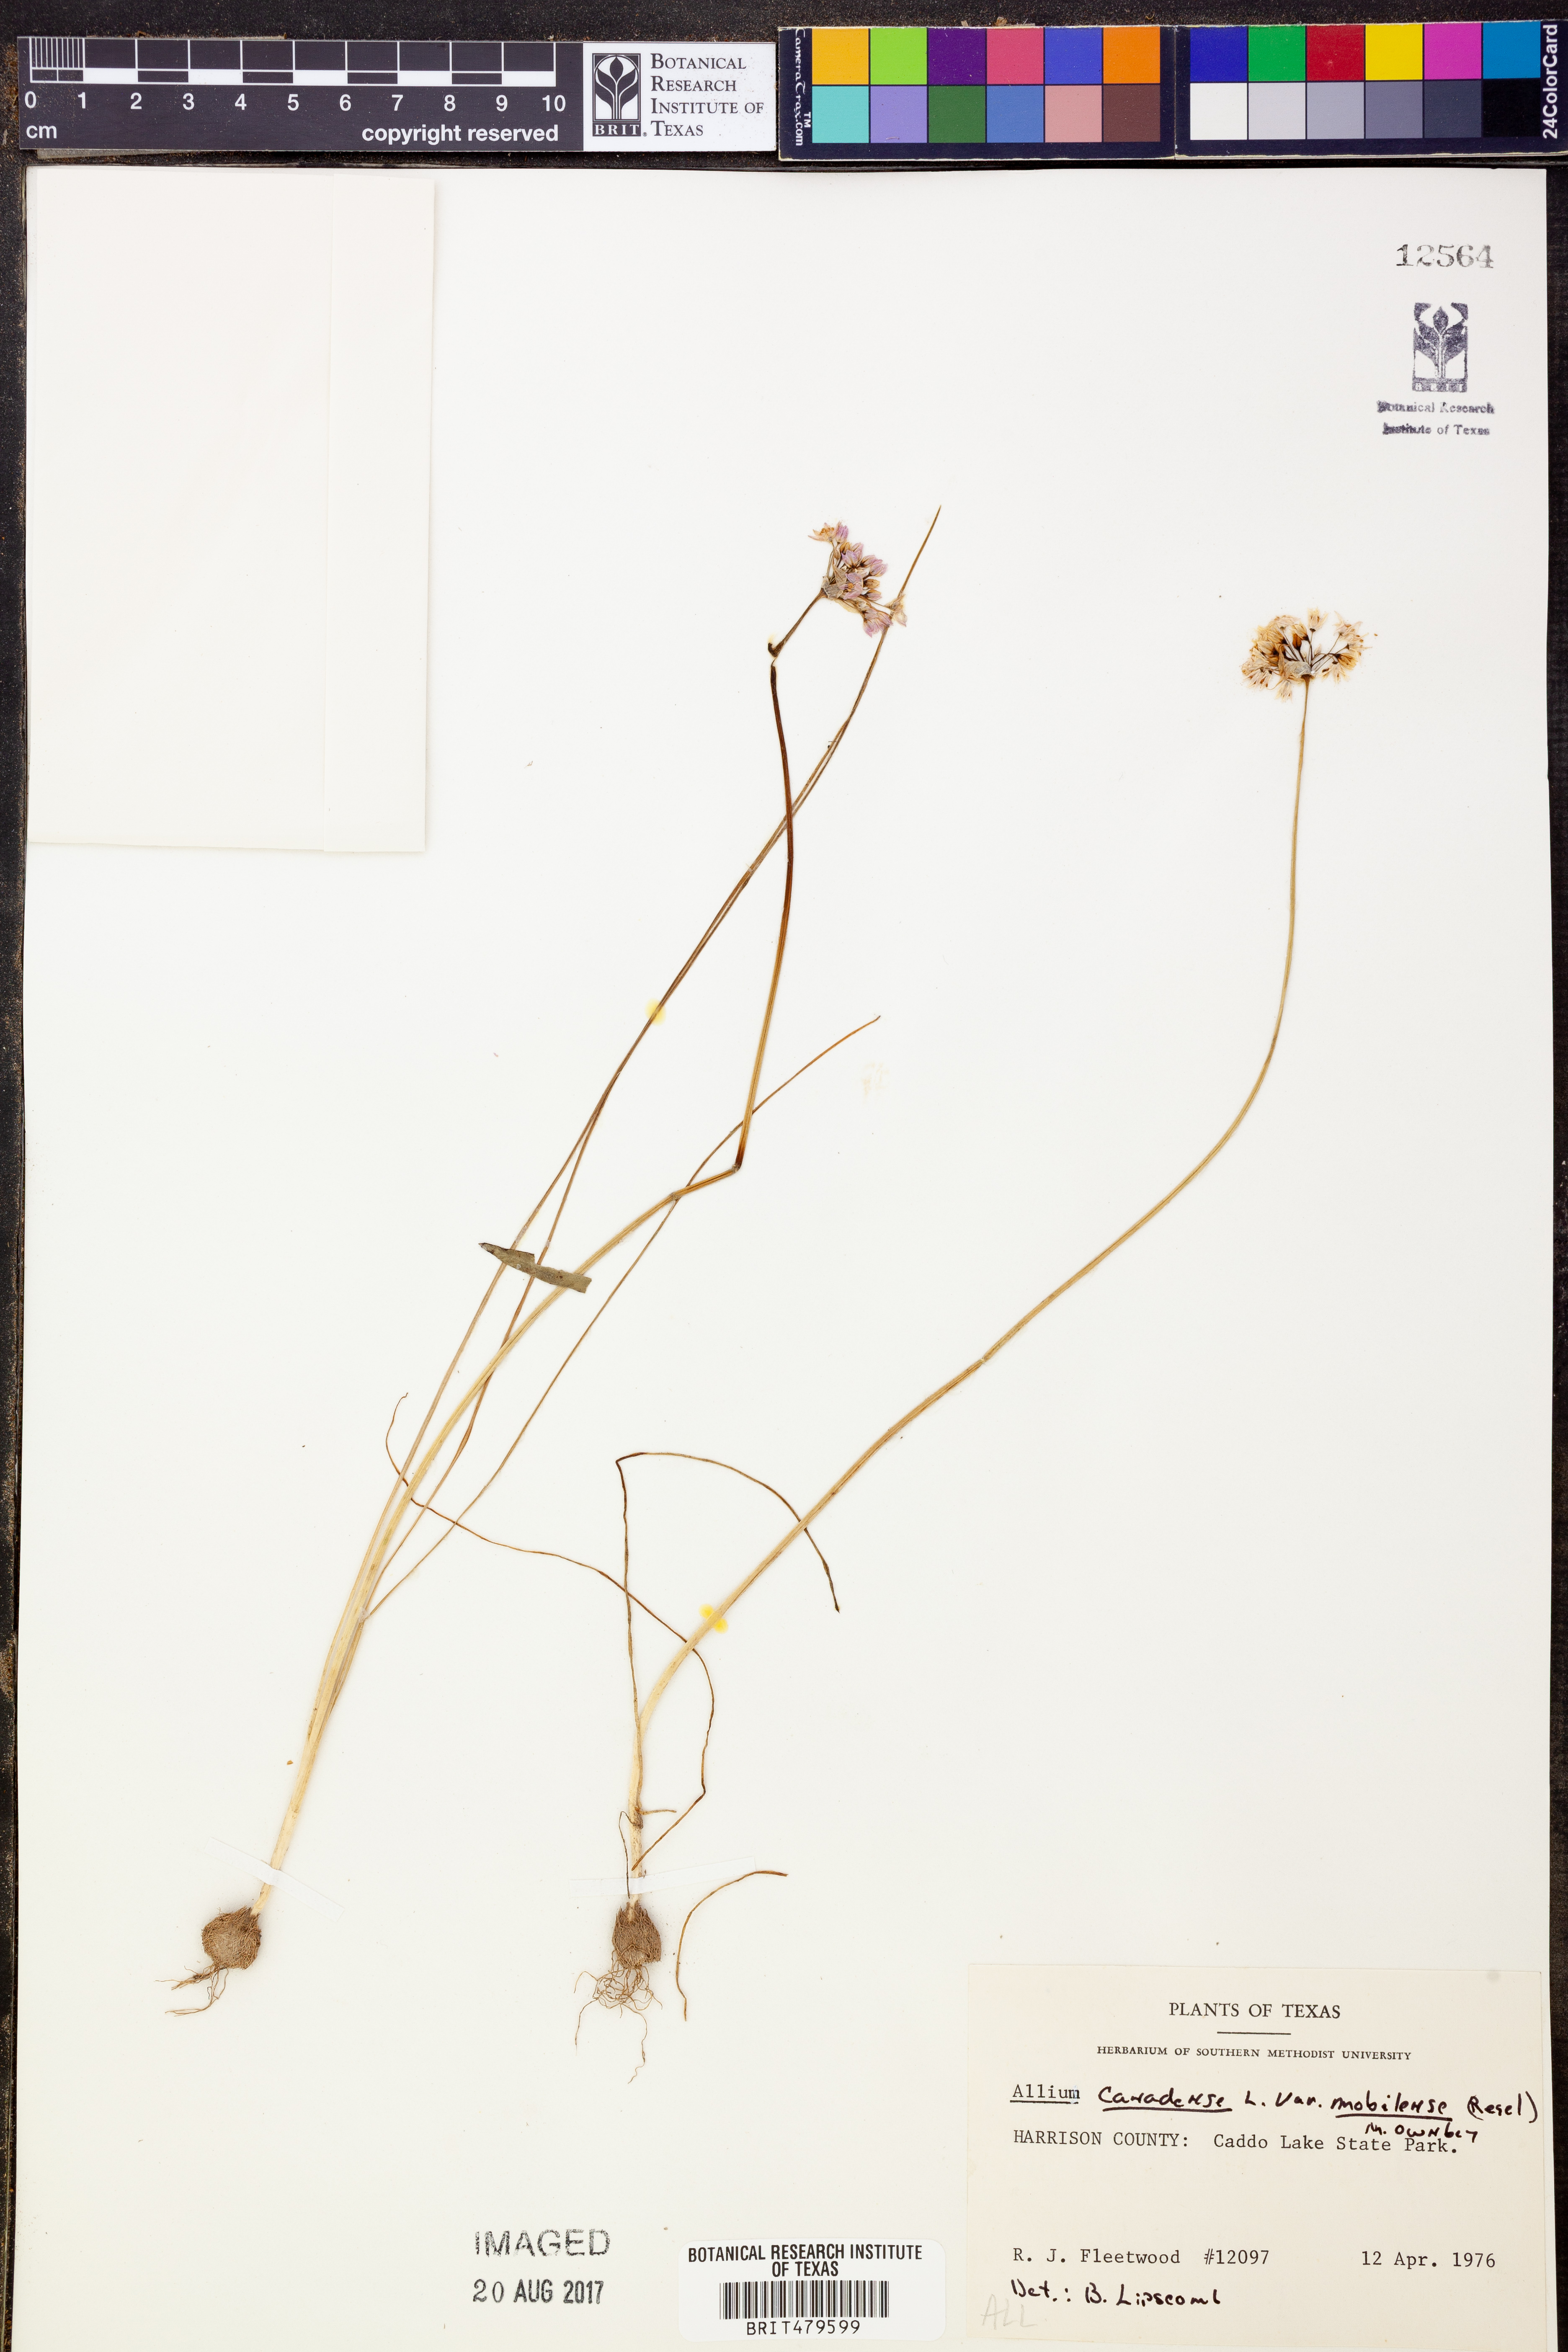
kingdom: Plantae
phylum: Tracheophyta
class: Liliopsida
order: Asparagales
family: Amaryllidaceae
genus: Allium
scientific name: Allium canadense
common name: Meadow garlic
